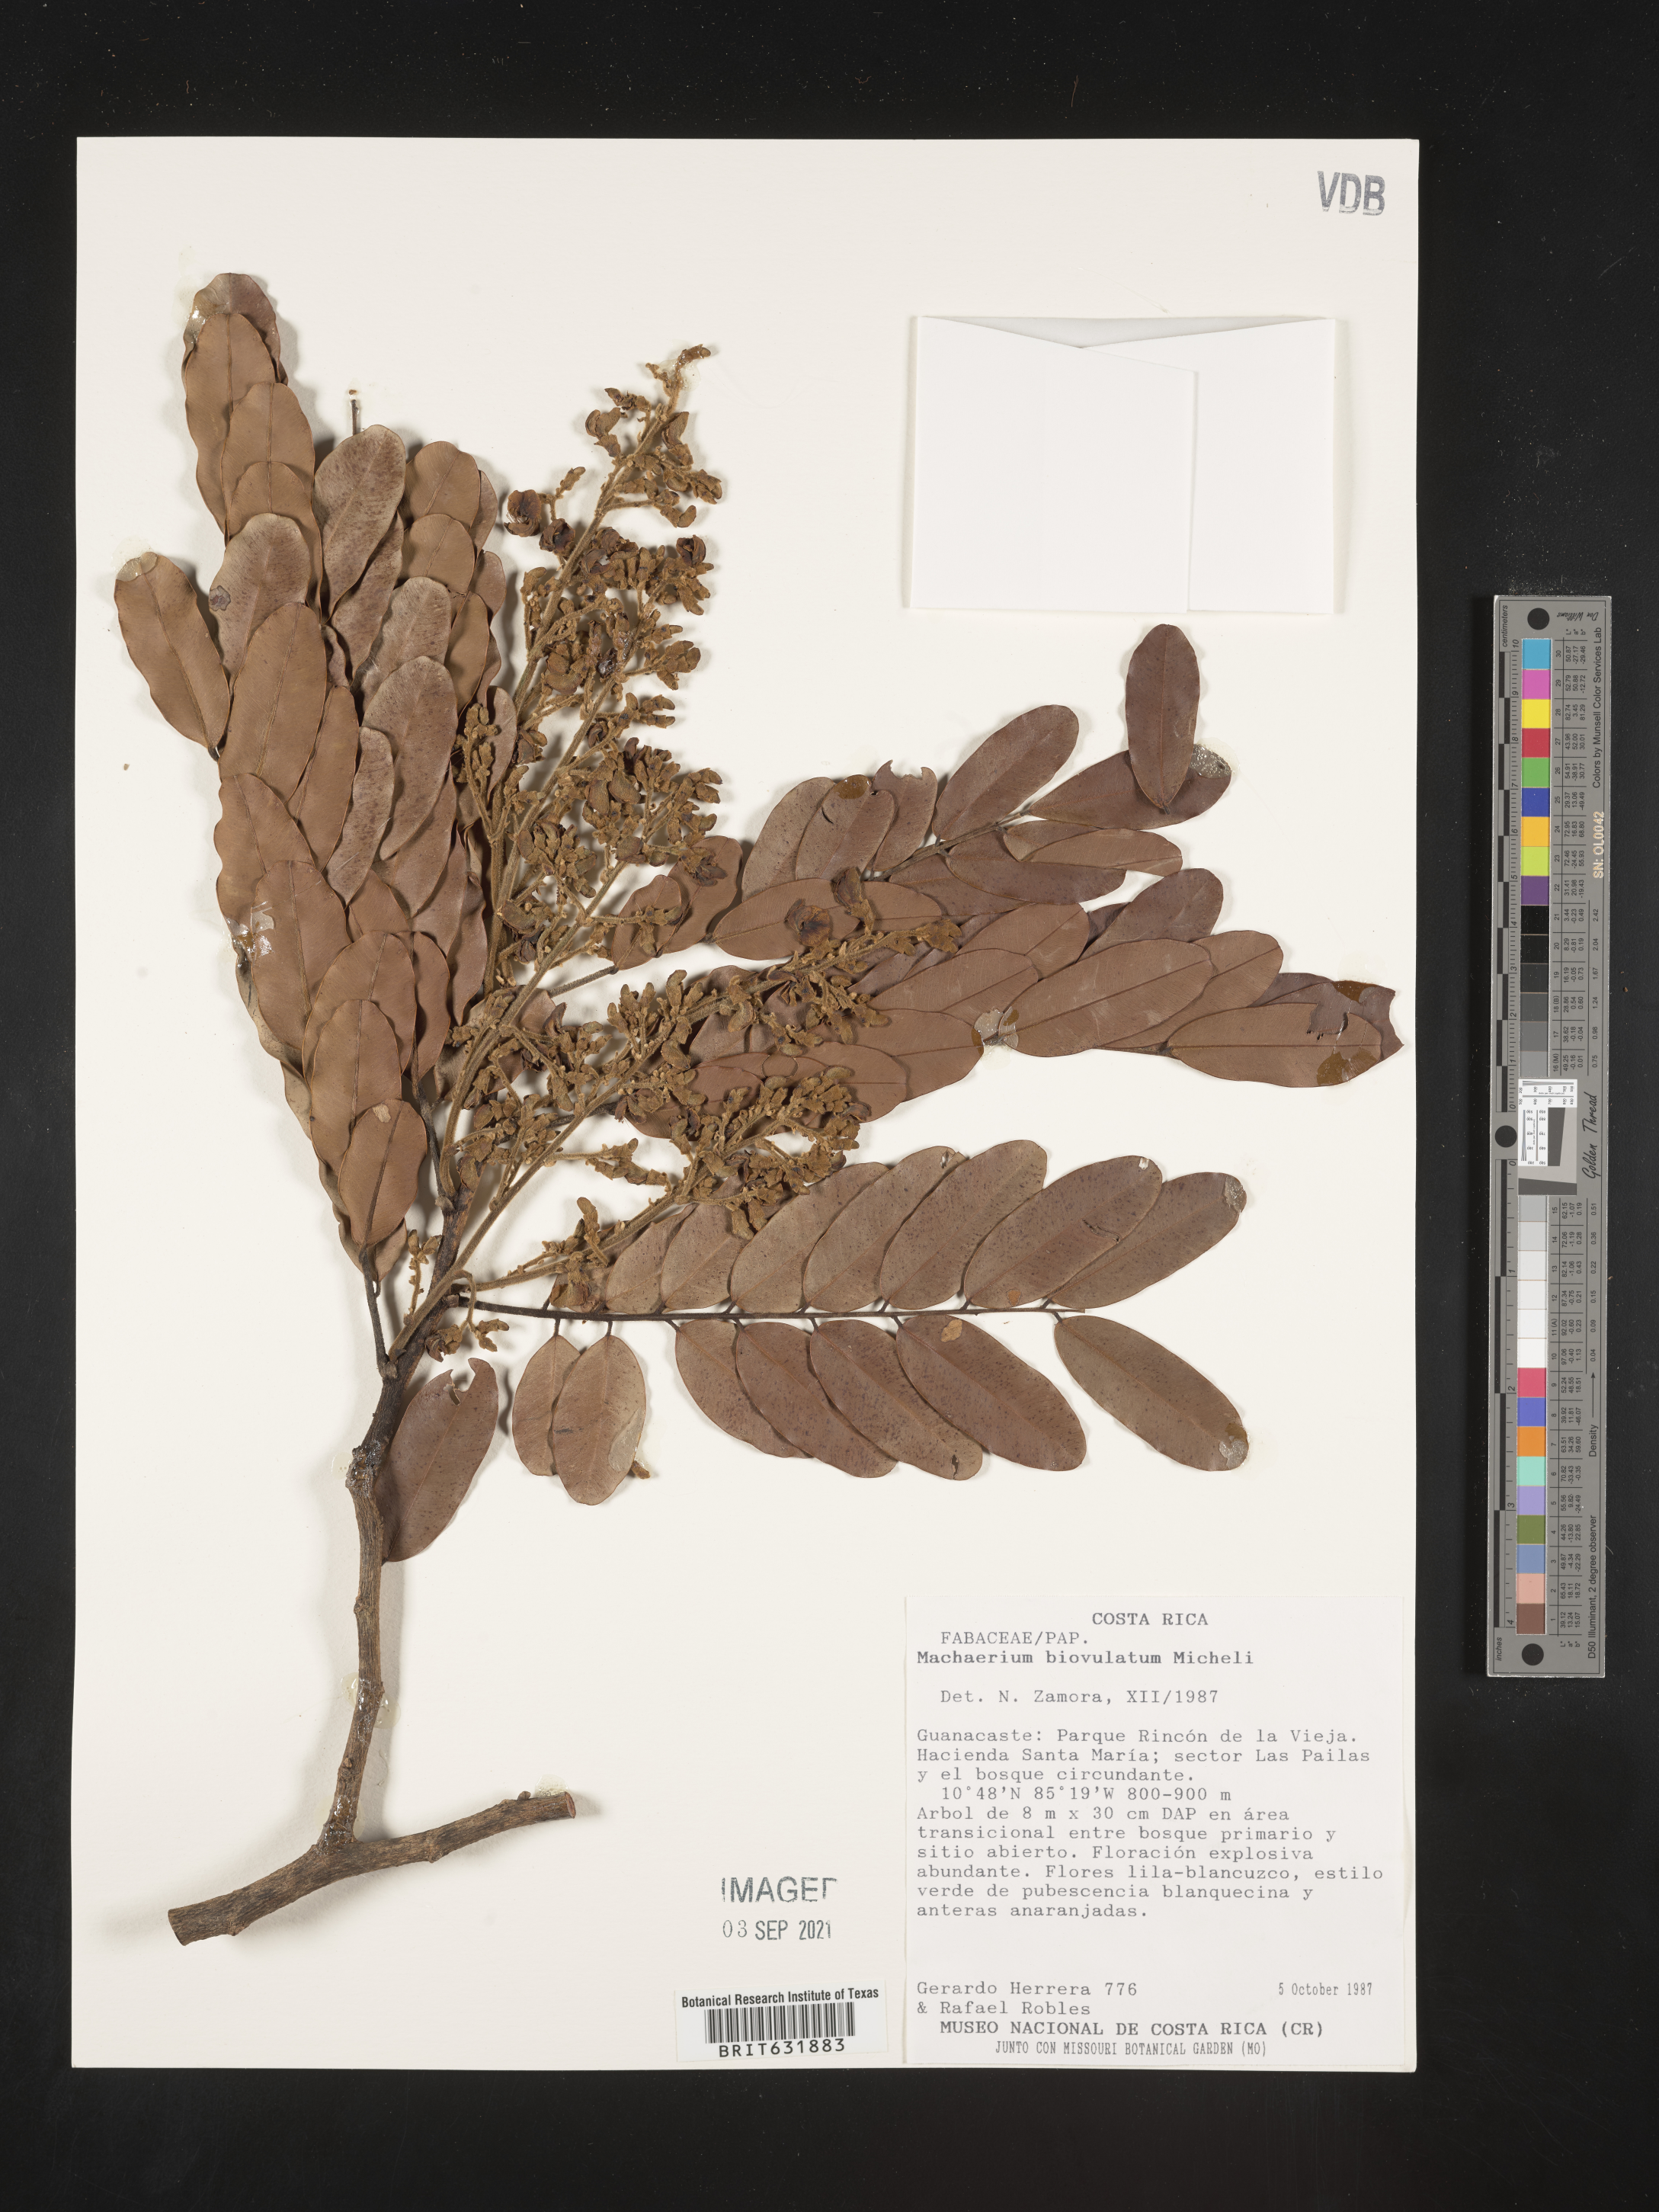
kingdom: Plantae
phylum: Tracheophyta
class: Magnoliopsida
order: Fabales
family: Fabaceae
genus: Machaerium
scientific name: Machaerium
